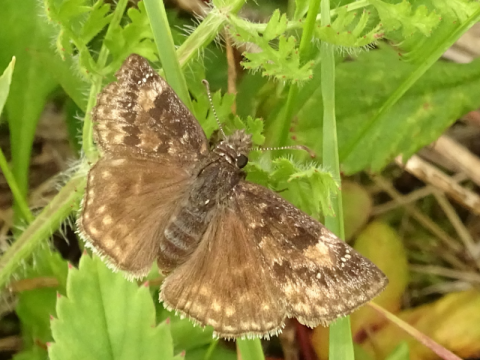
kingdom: Animalia
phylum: Arthropoda
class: Insecta
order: Lepidoptera
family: Hesperiidae
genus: Gesta
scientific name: Gesta
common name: Wild Indigo Duskywing
